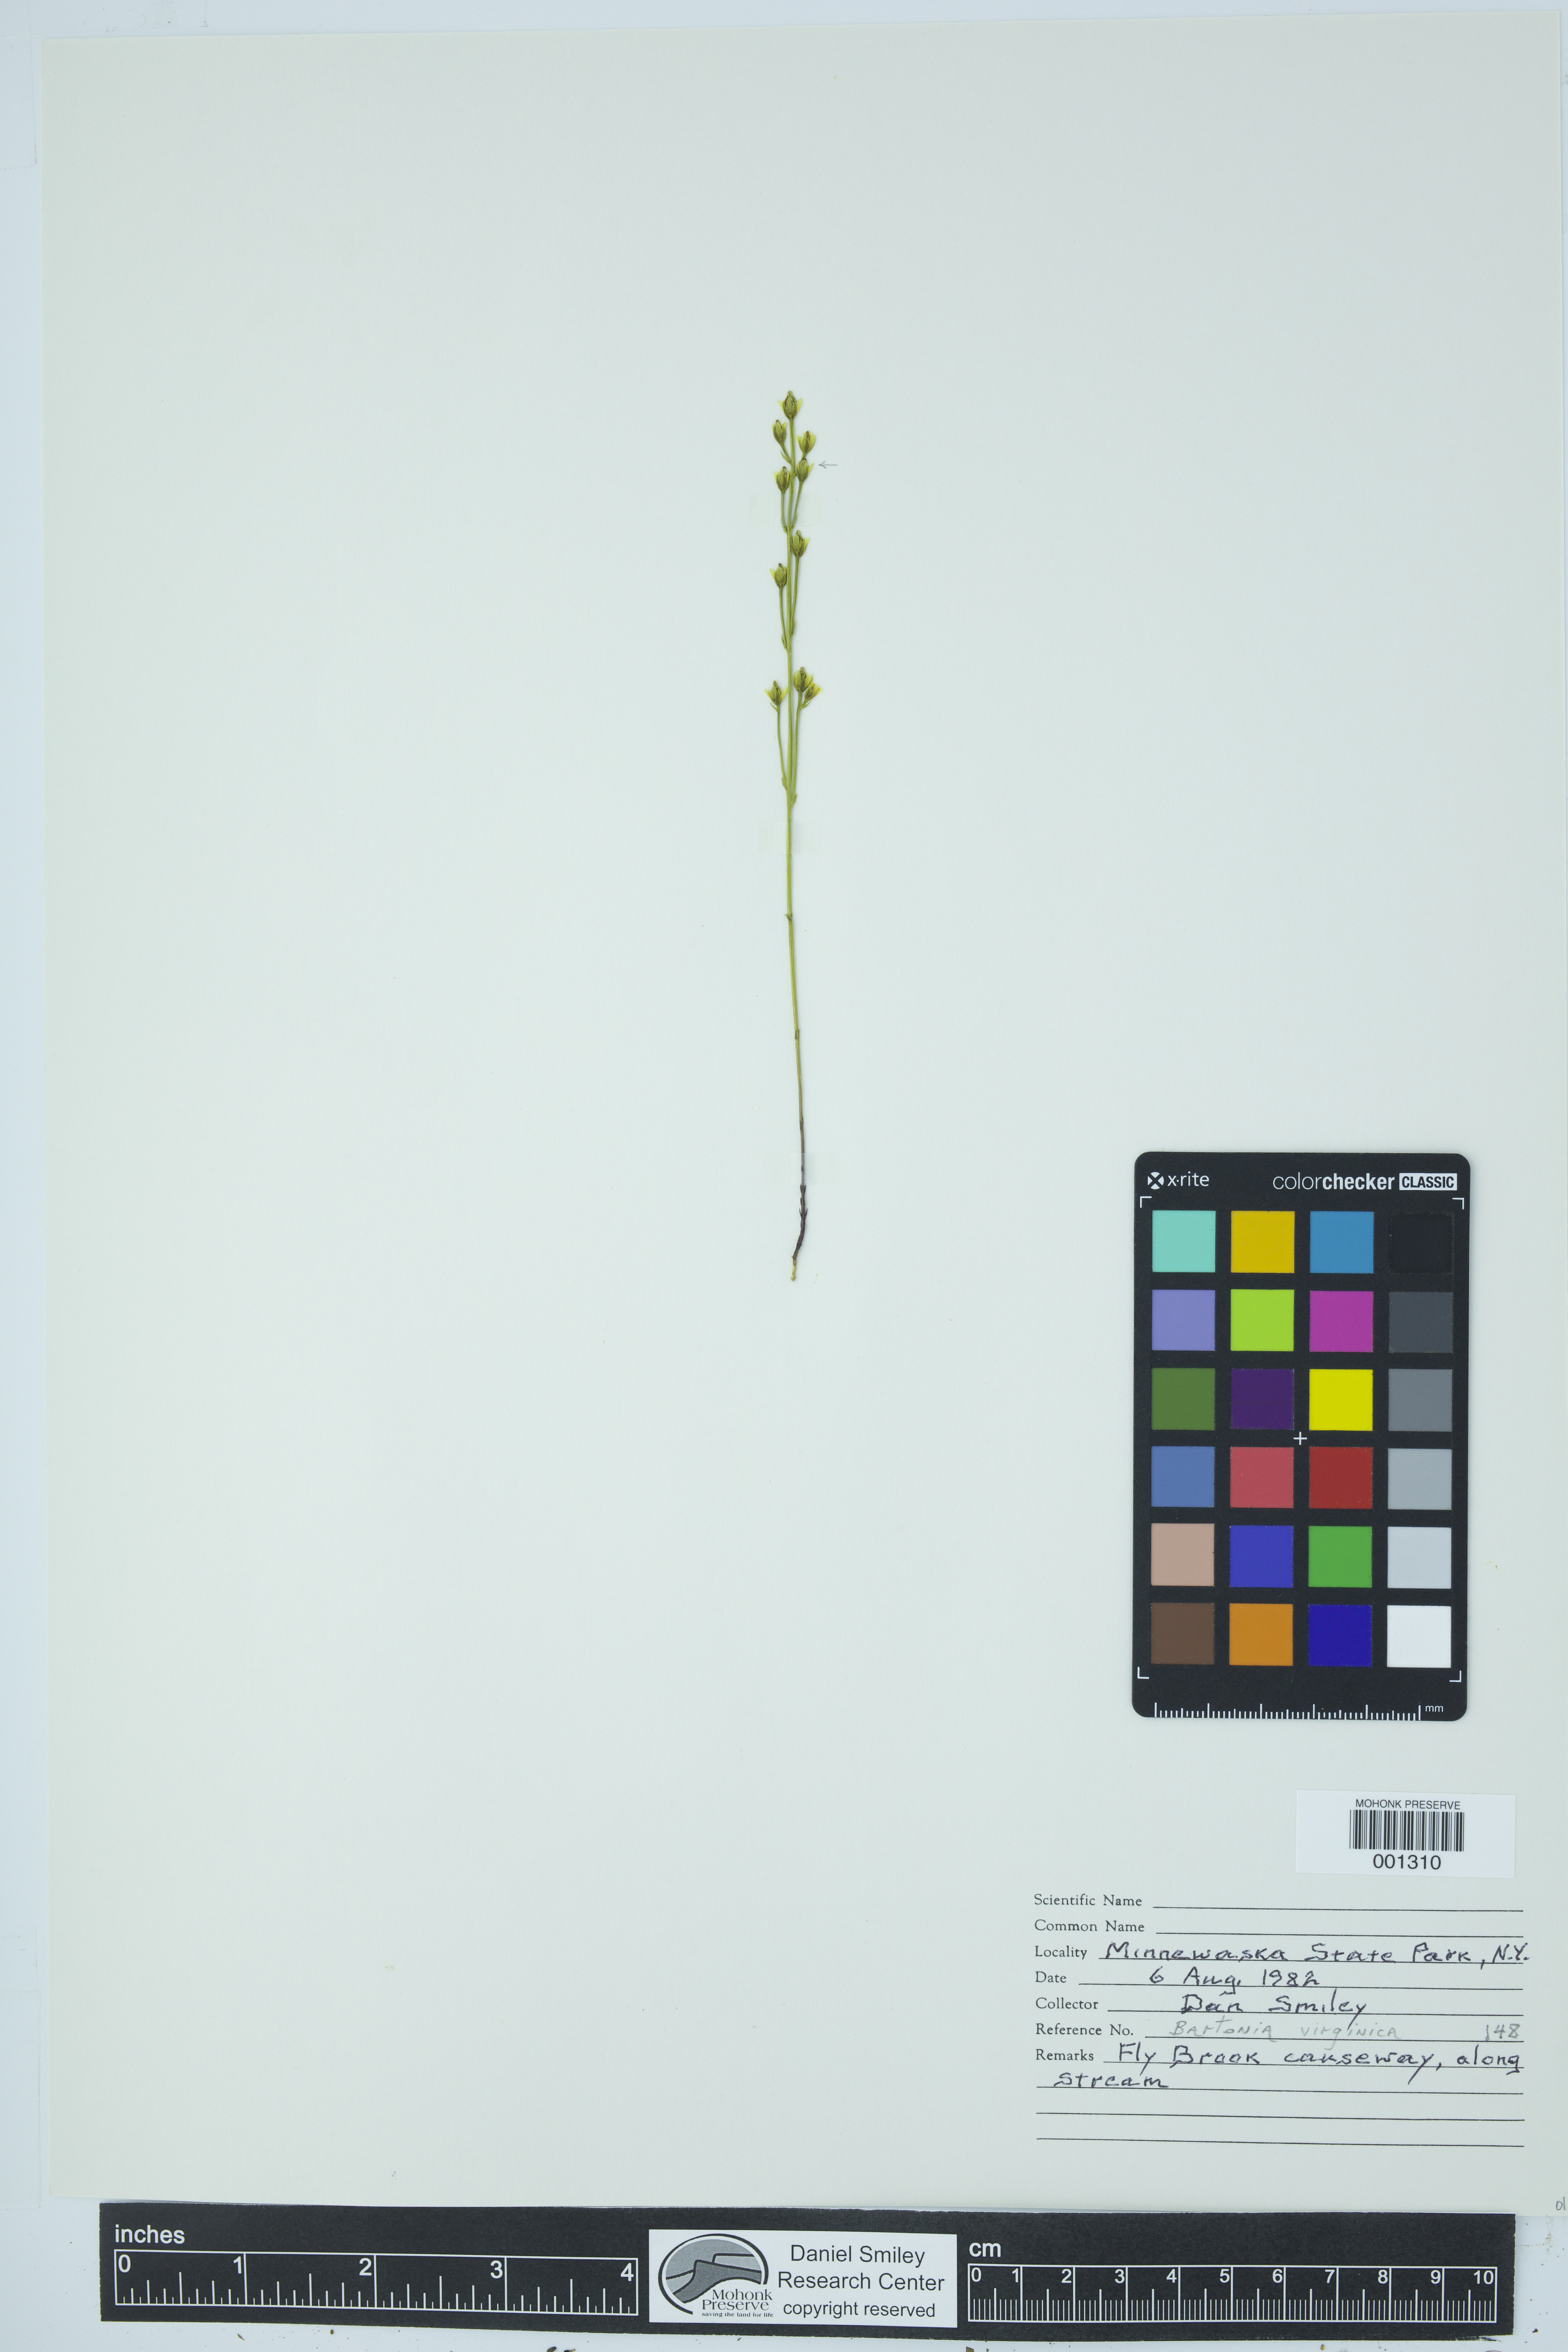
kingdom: Plantae
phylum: Tracheophyta
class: Magnoliopsida
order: Gentianales
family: Gentianaceae
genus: Bartonia
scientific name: Bartonia virginica
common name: Yellow bartonia
